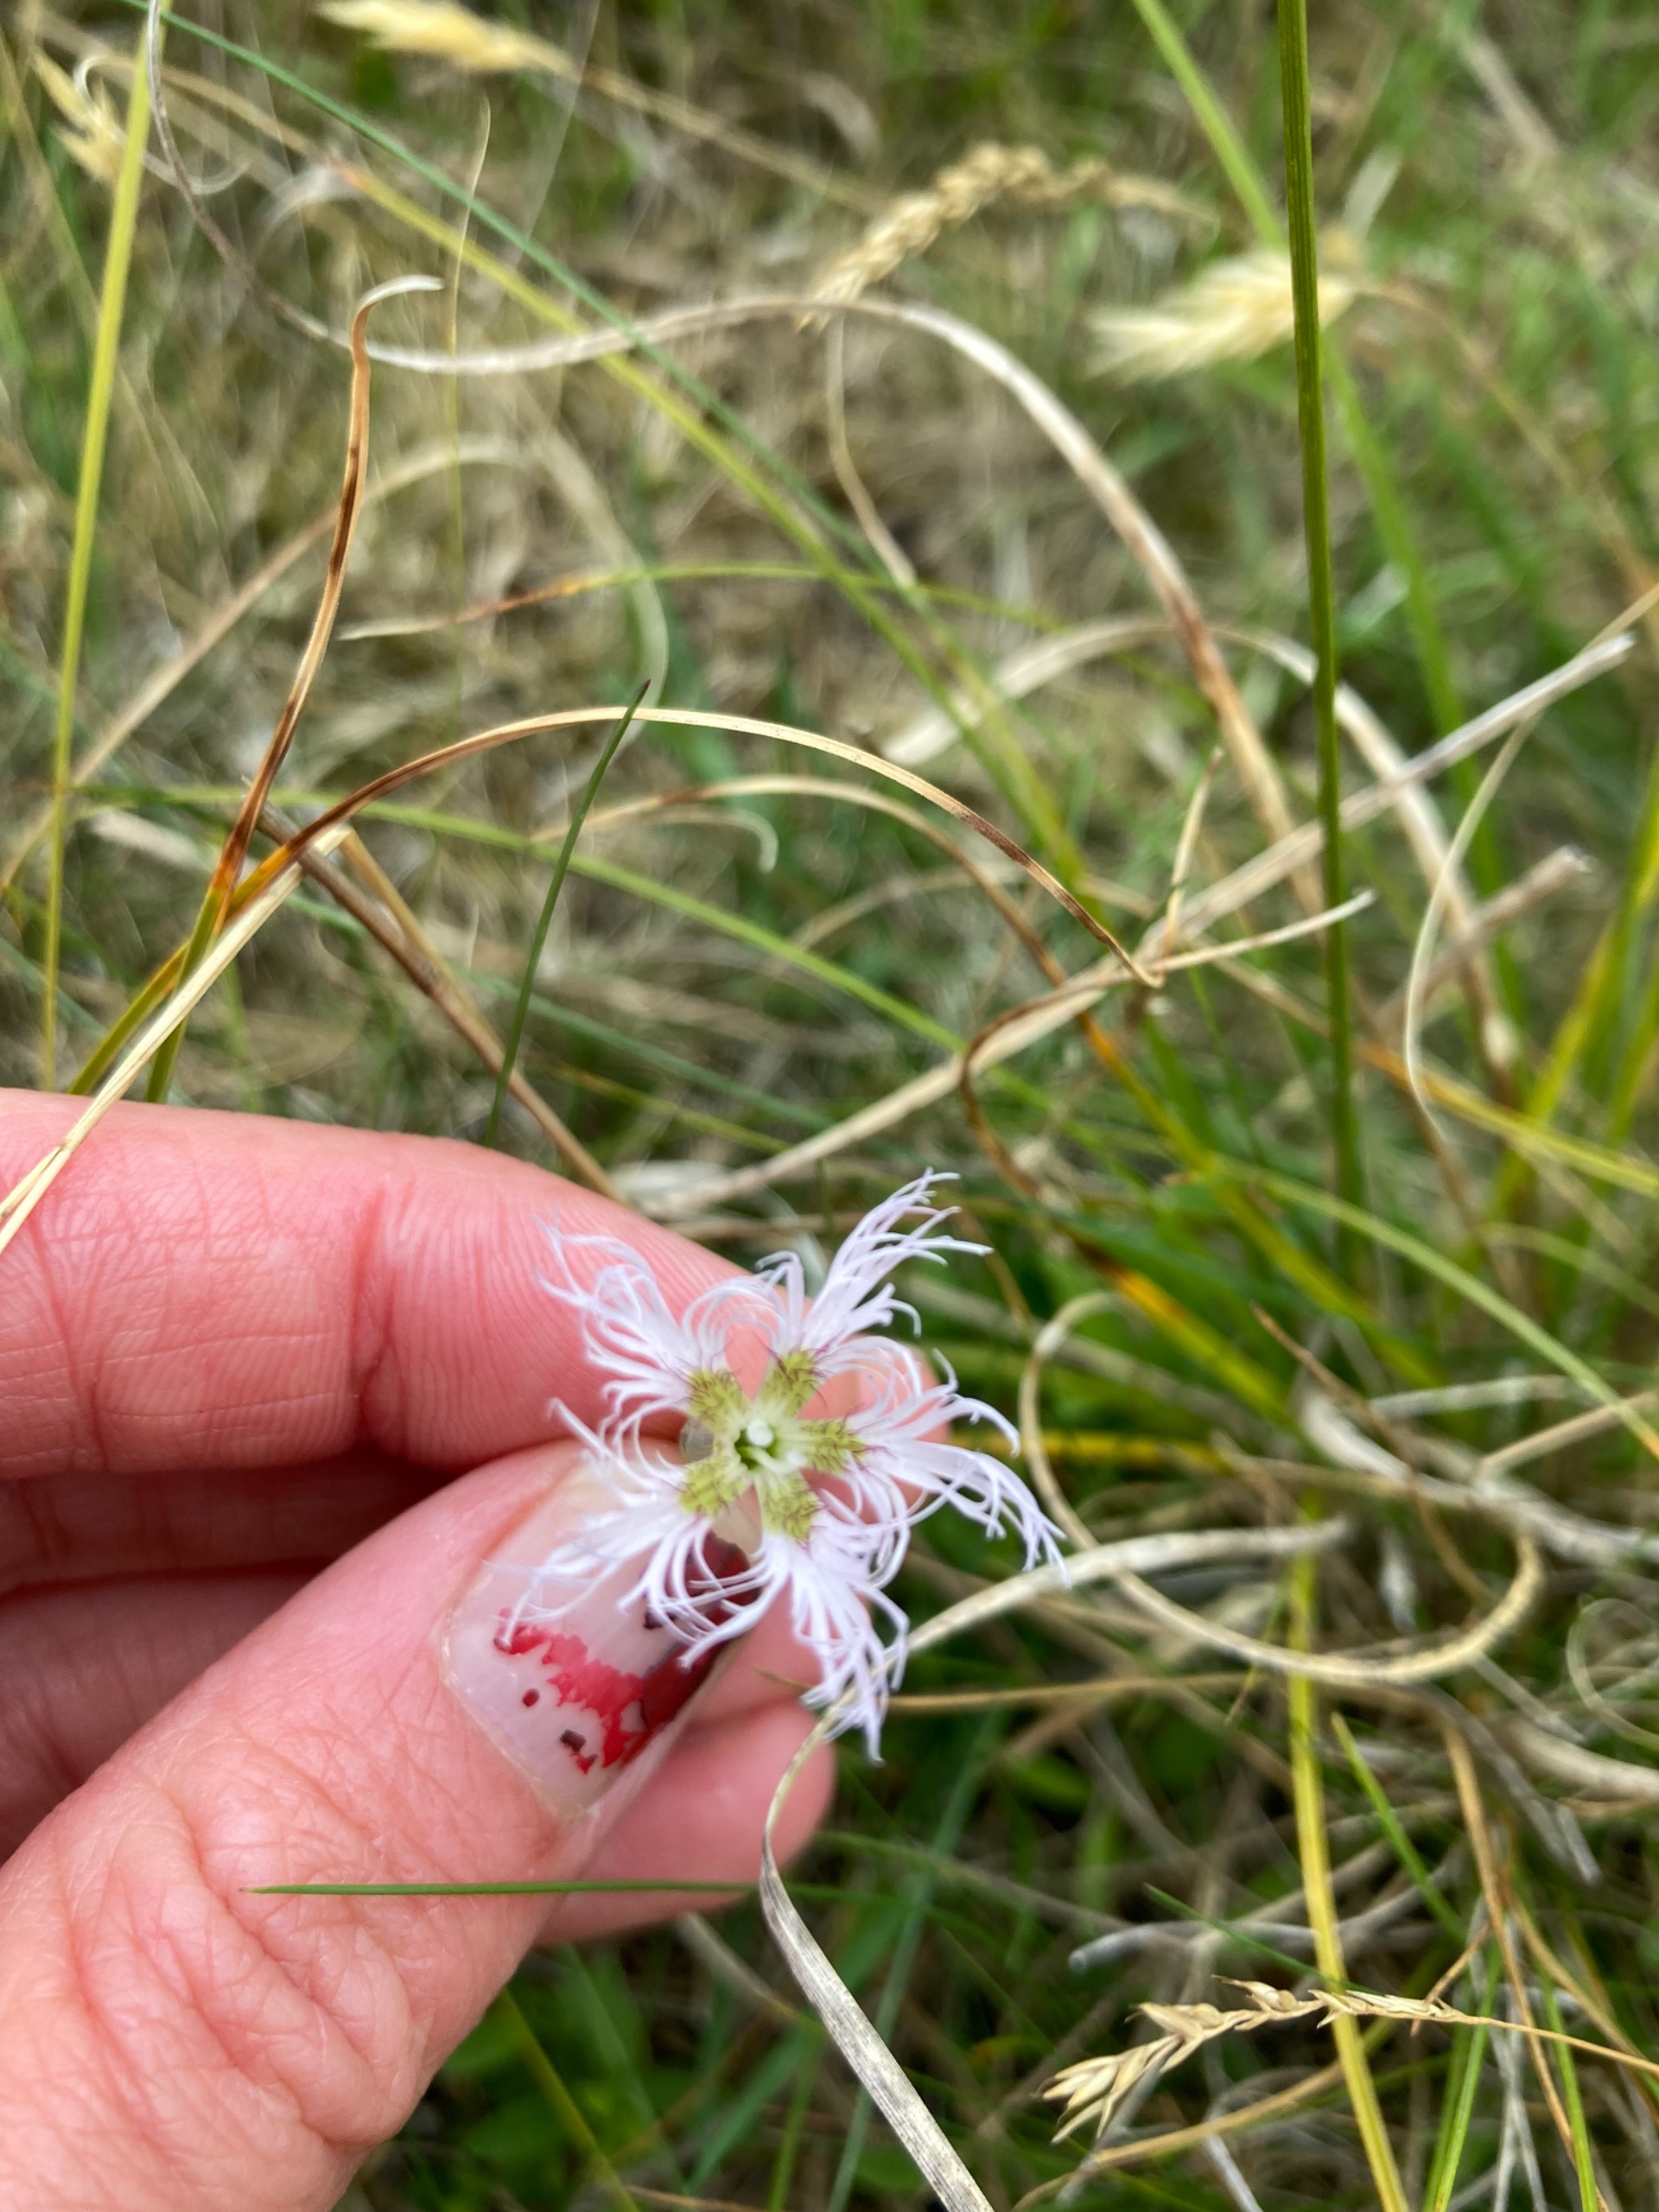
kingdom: Plantae
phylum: Tracheophyta
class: Magnoliopsida
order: Caryophyllales
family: Caryophyllaceae
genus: Dianthus
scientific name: Dianthus superbus
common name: Strand-nellike
